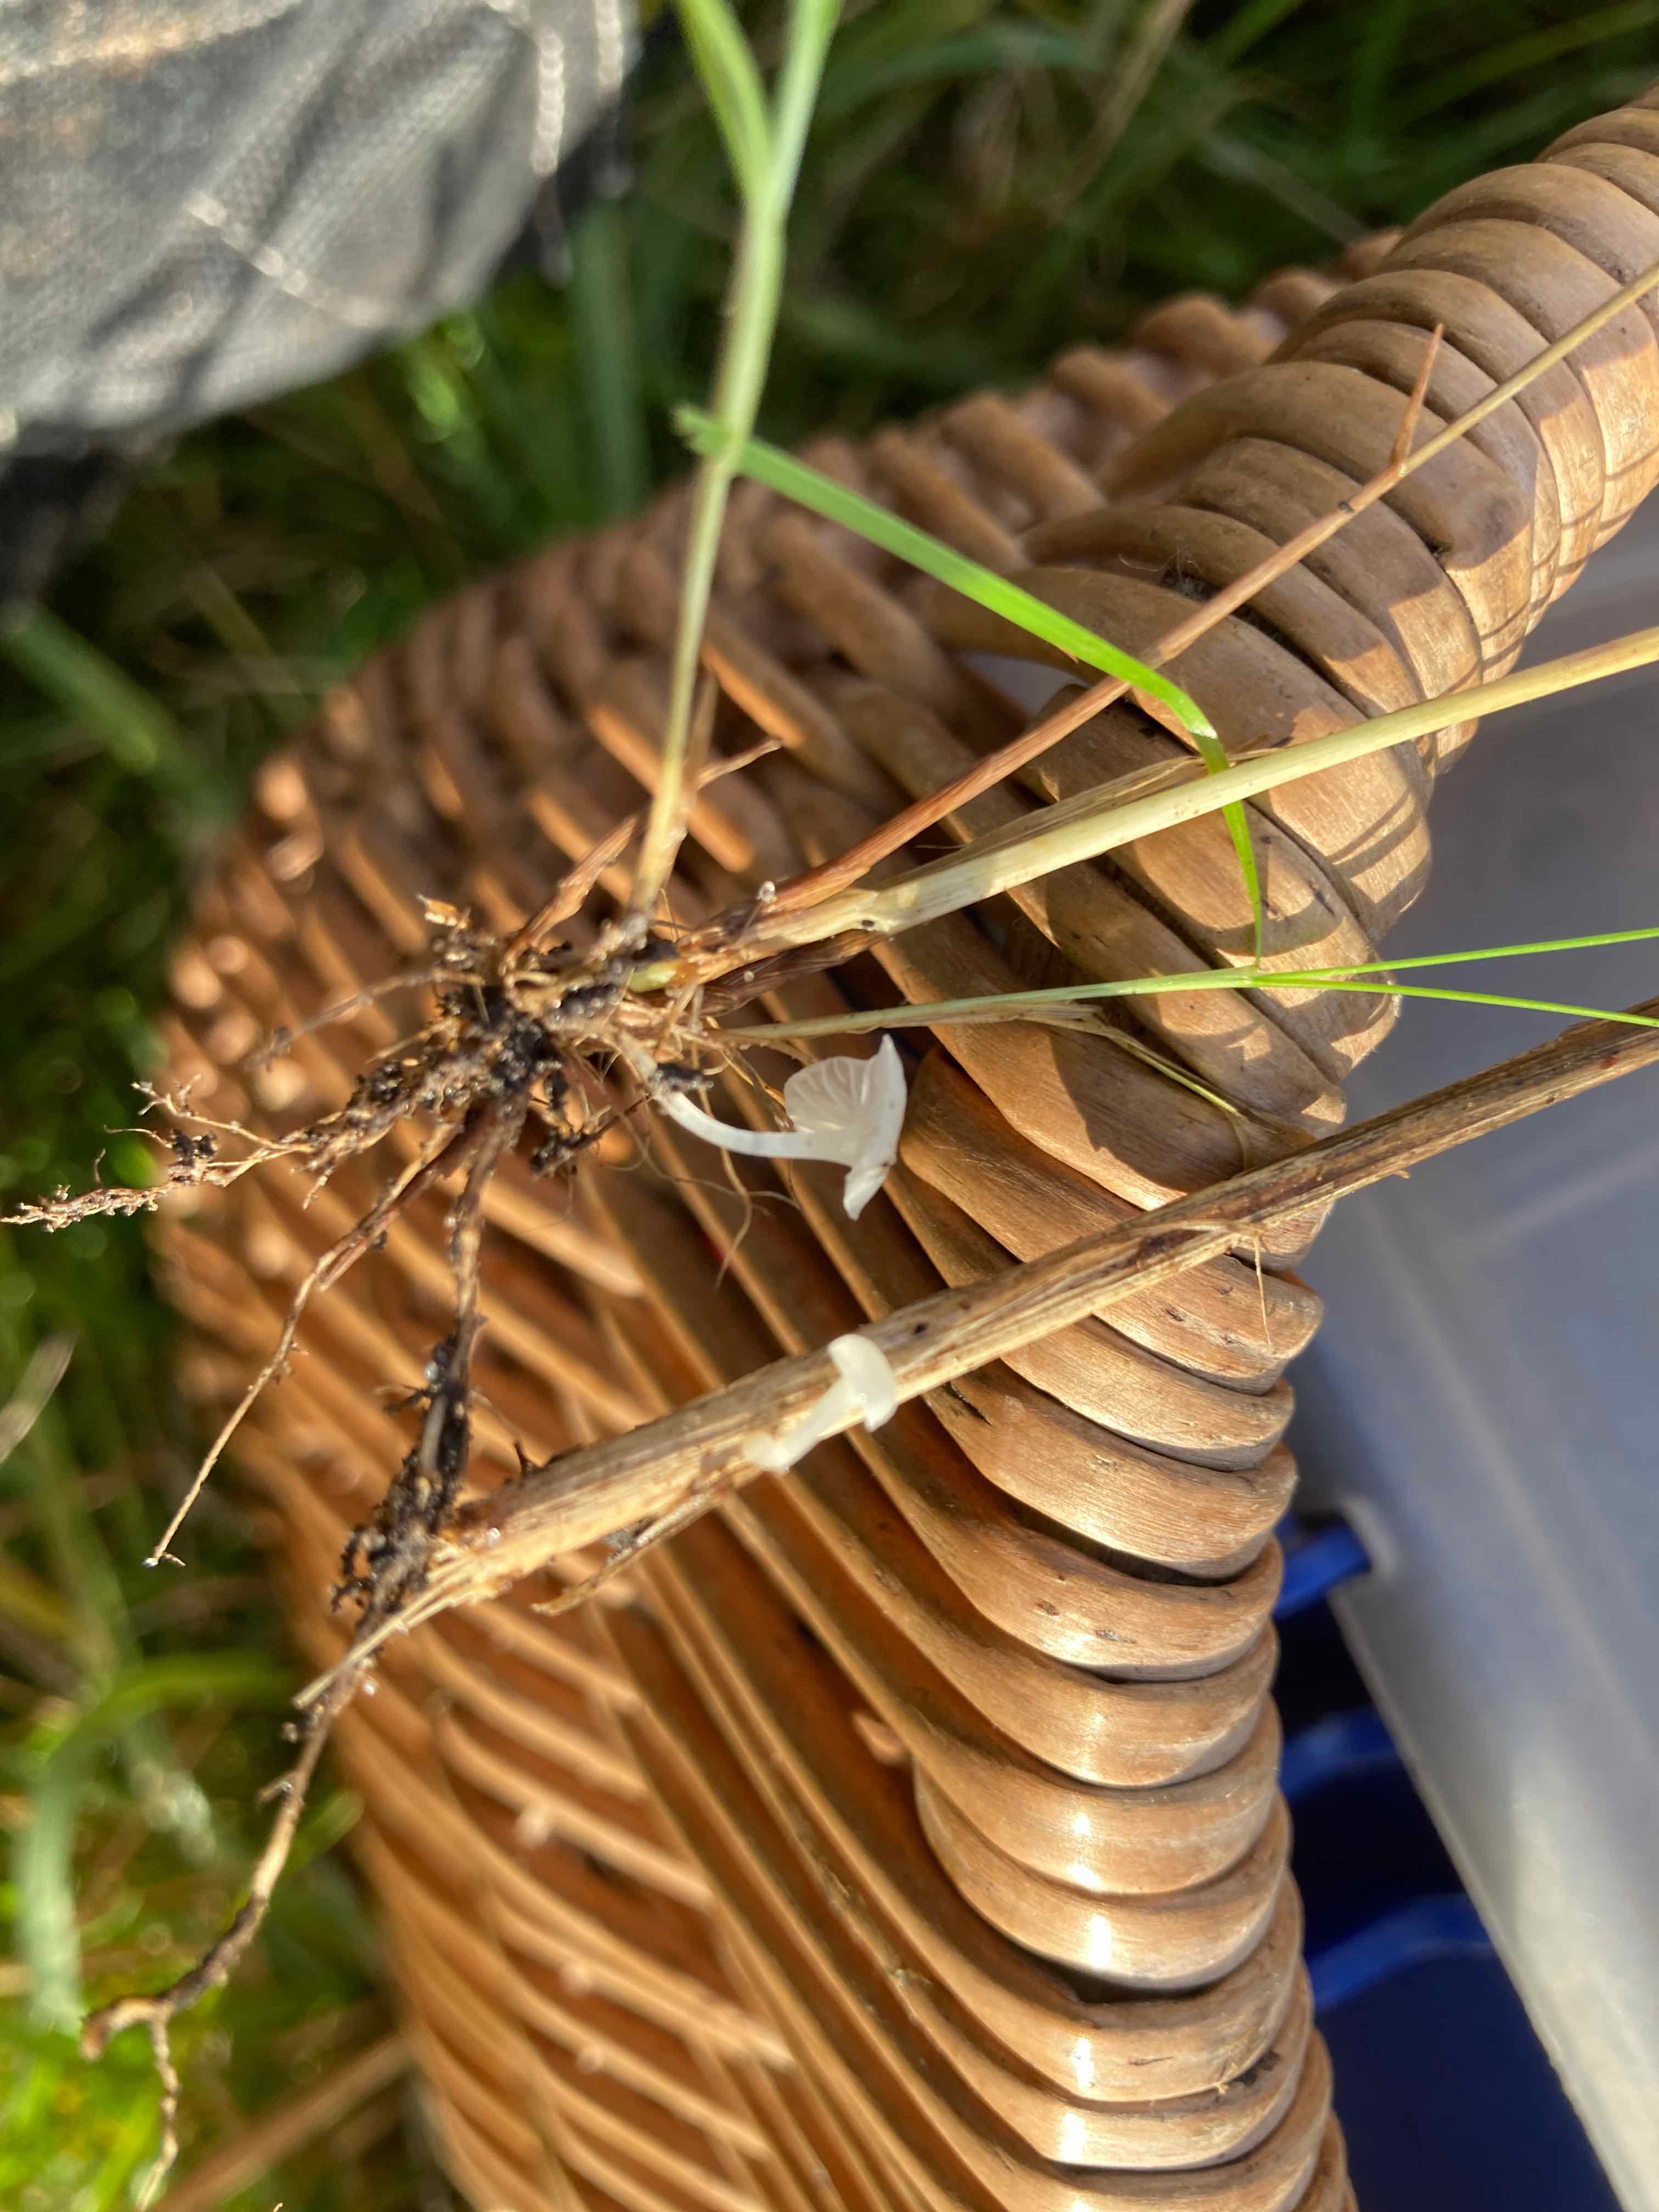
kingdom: Fungi
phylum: Basidiomycota
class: Agaricomycetes
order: Agaricales
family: Mycenaceae
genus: Atheniella
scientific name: Atheniella delectabilis
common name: nitrøs huesvamp
